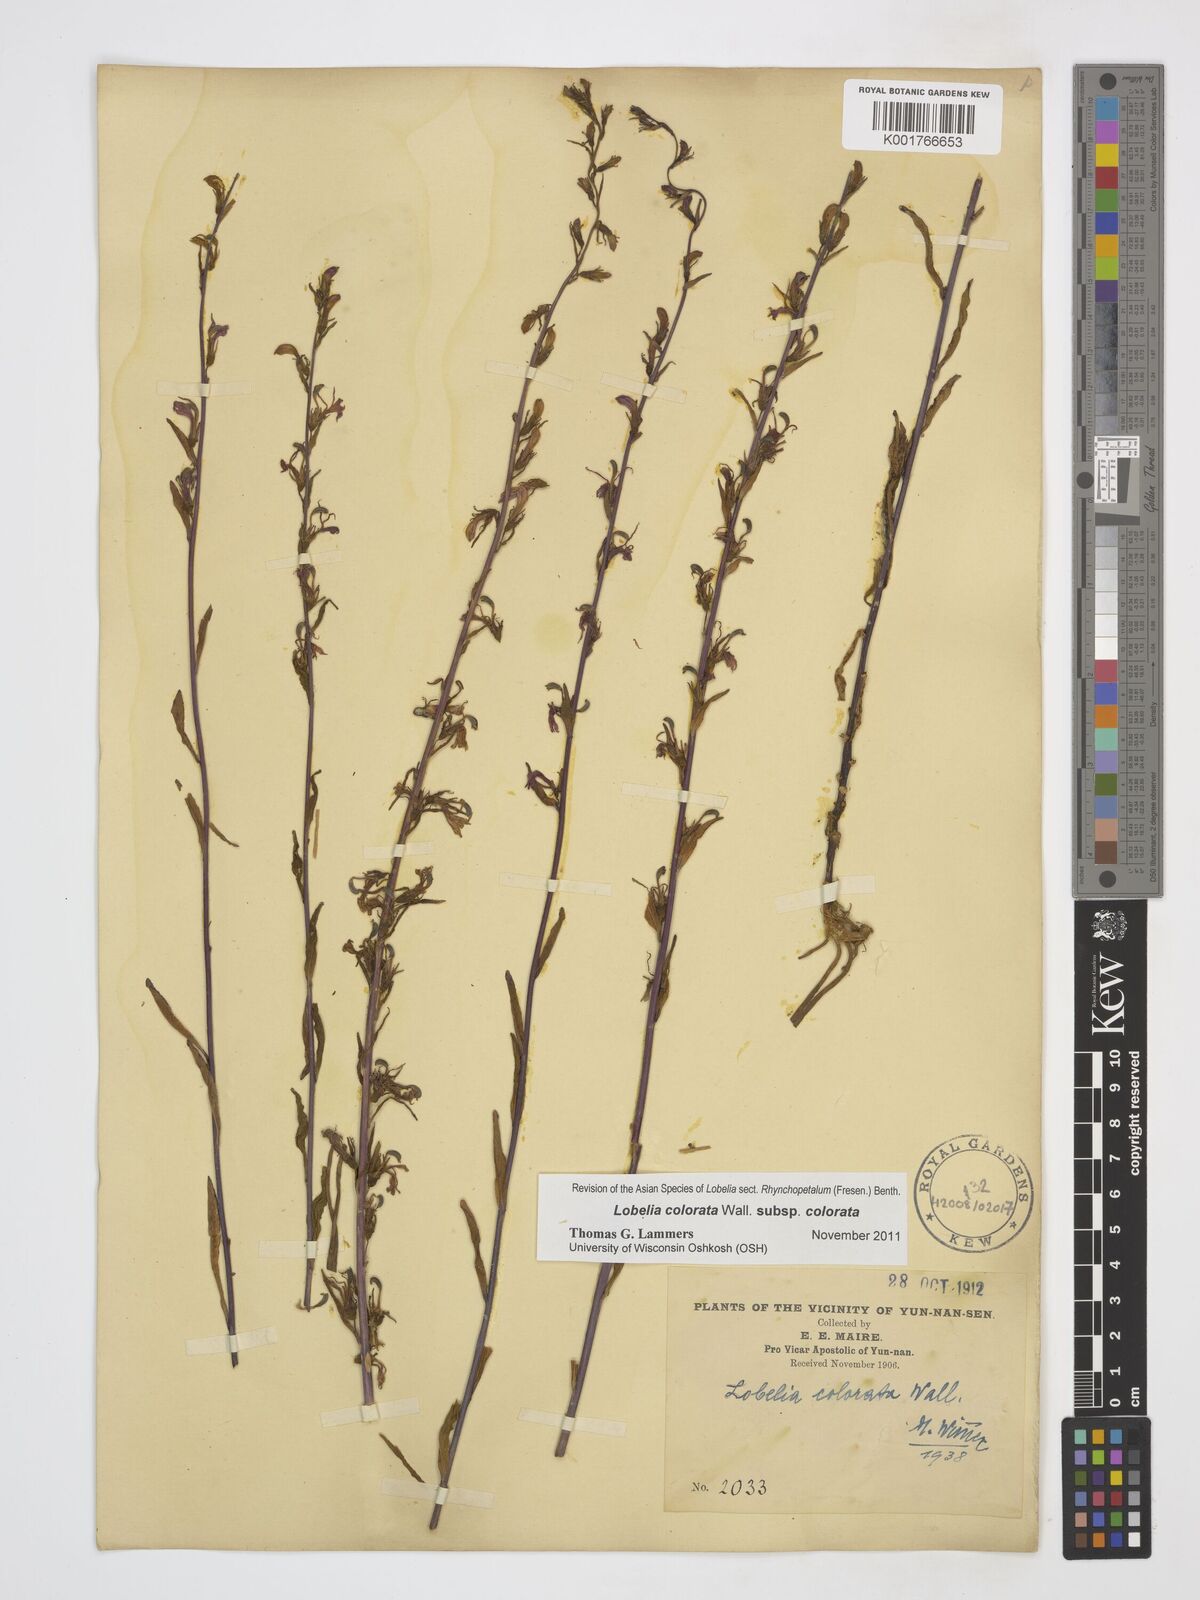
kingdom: Plantae
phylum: Tracheophyta
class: Magnoliopsida
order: Asterales
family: Campanulaceae
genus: Lobelia
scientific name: Lobelia nicotianifolia
